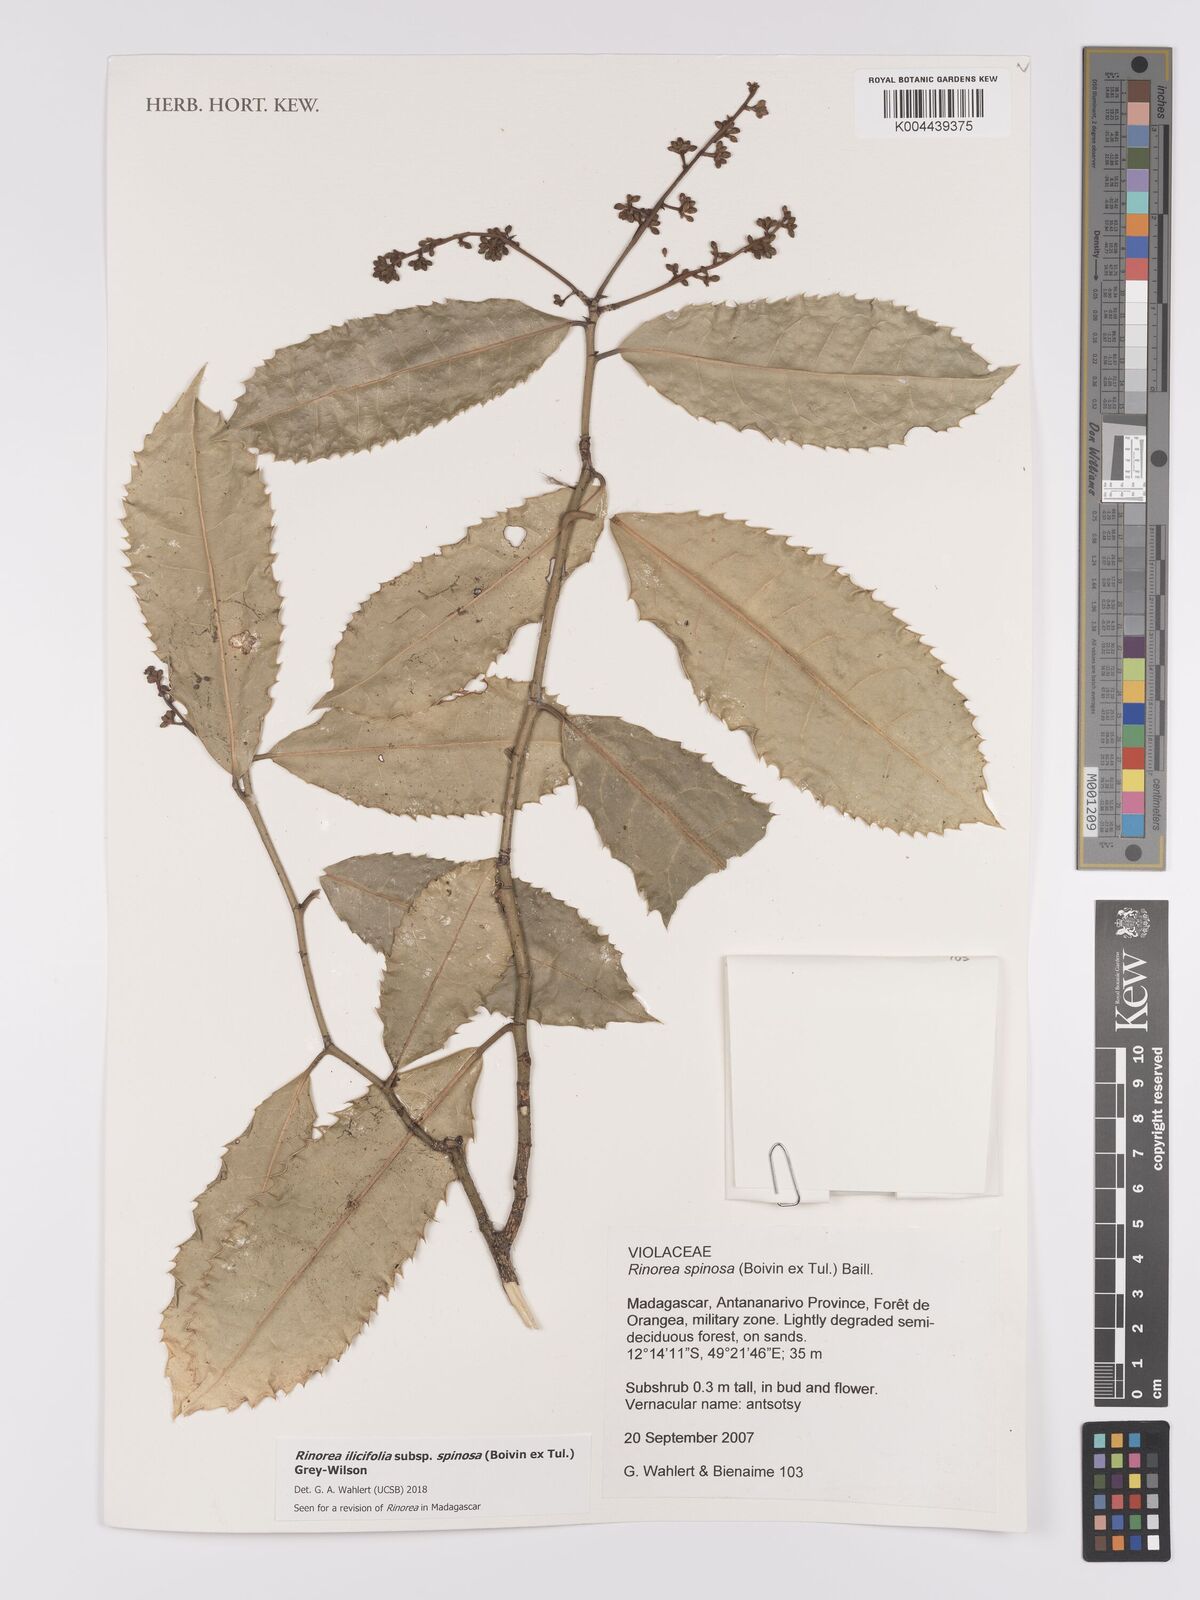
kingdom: Plantae
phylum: Tracheophyta
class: Magnoliopsida
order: Malpighiales
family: Violaceae
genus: Rinorea
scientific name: Rinorea spinosa
